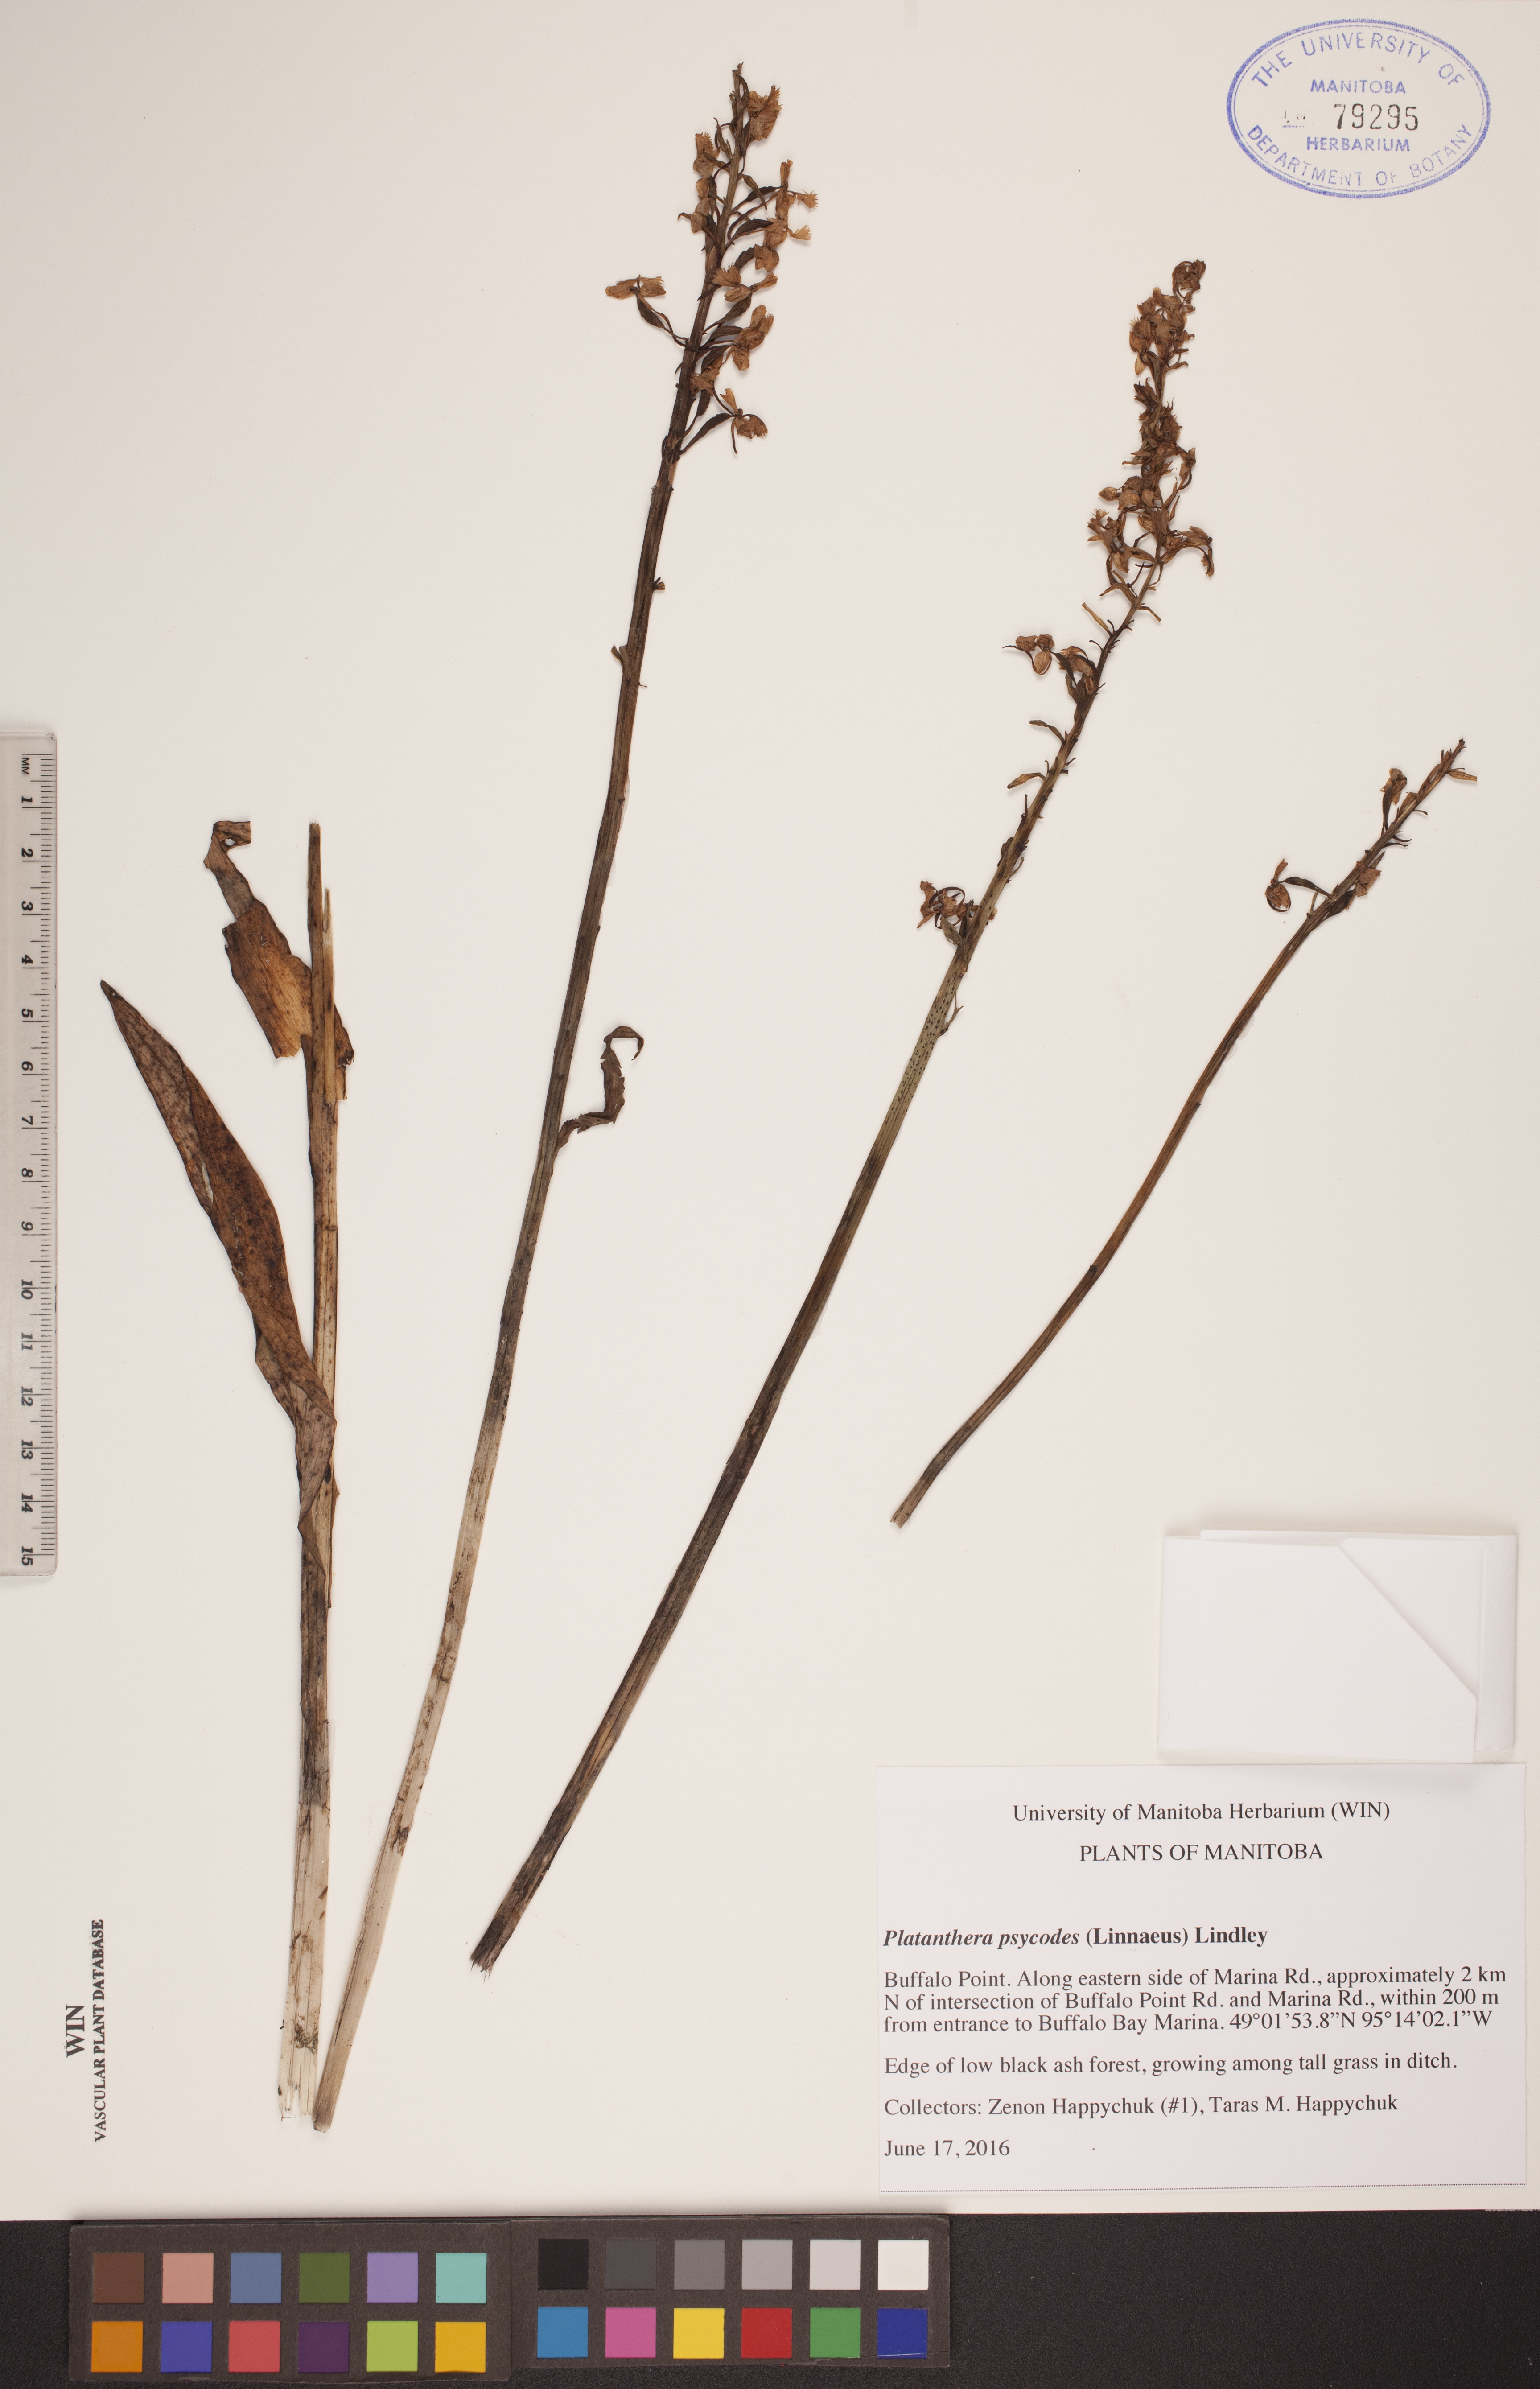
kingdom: Plantae
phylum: Tracheophyta
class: Liliopsida
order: Asparagales
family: Orchidaceae
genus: Platanthera
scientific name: Platanthera psycodes
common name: Lesser purple fringed orchid
